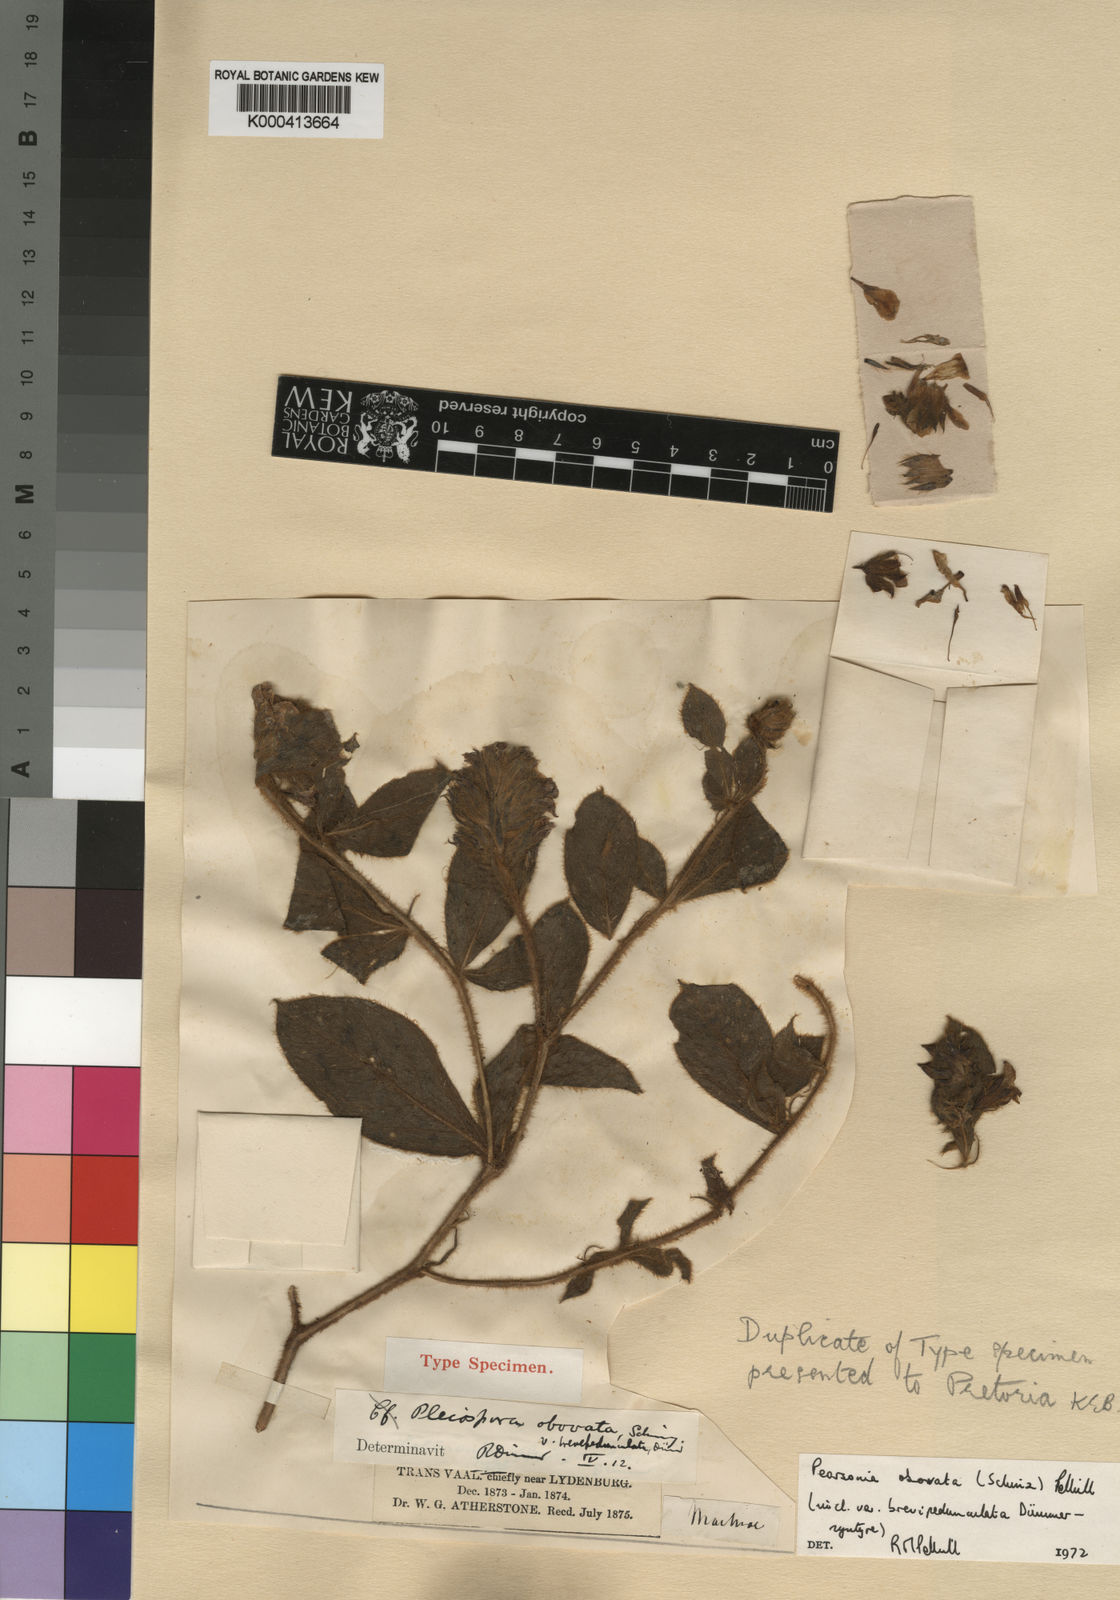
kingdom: Plantae
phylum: Tracheophyta
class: Magnoliopsida
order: Fabales
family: Fabaceae
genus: Pearsonia
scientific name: Pearsonia obovata
